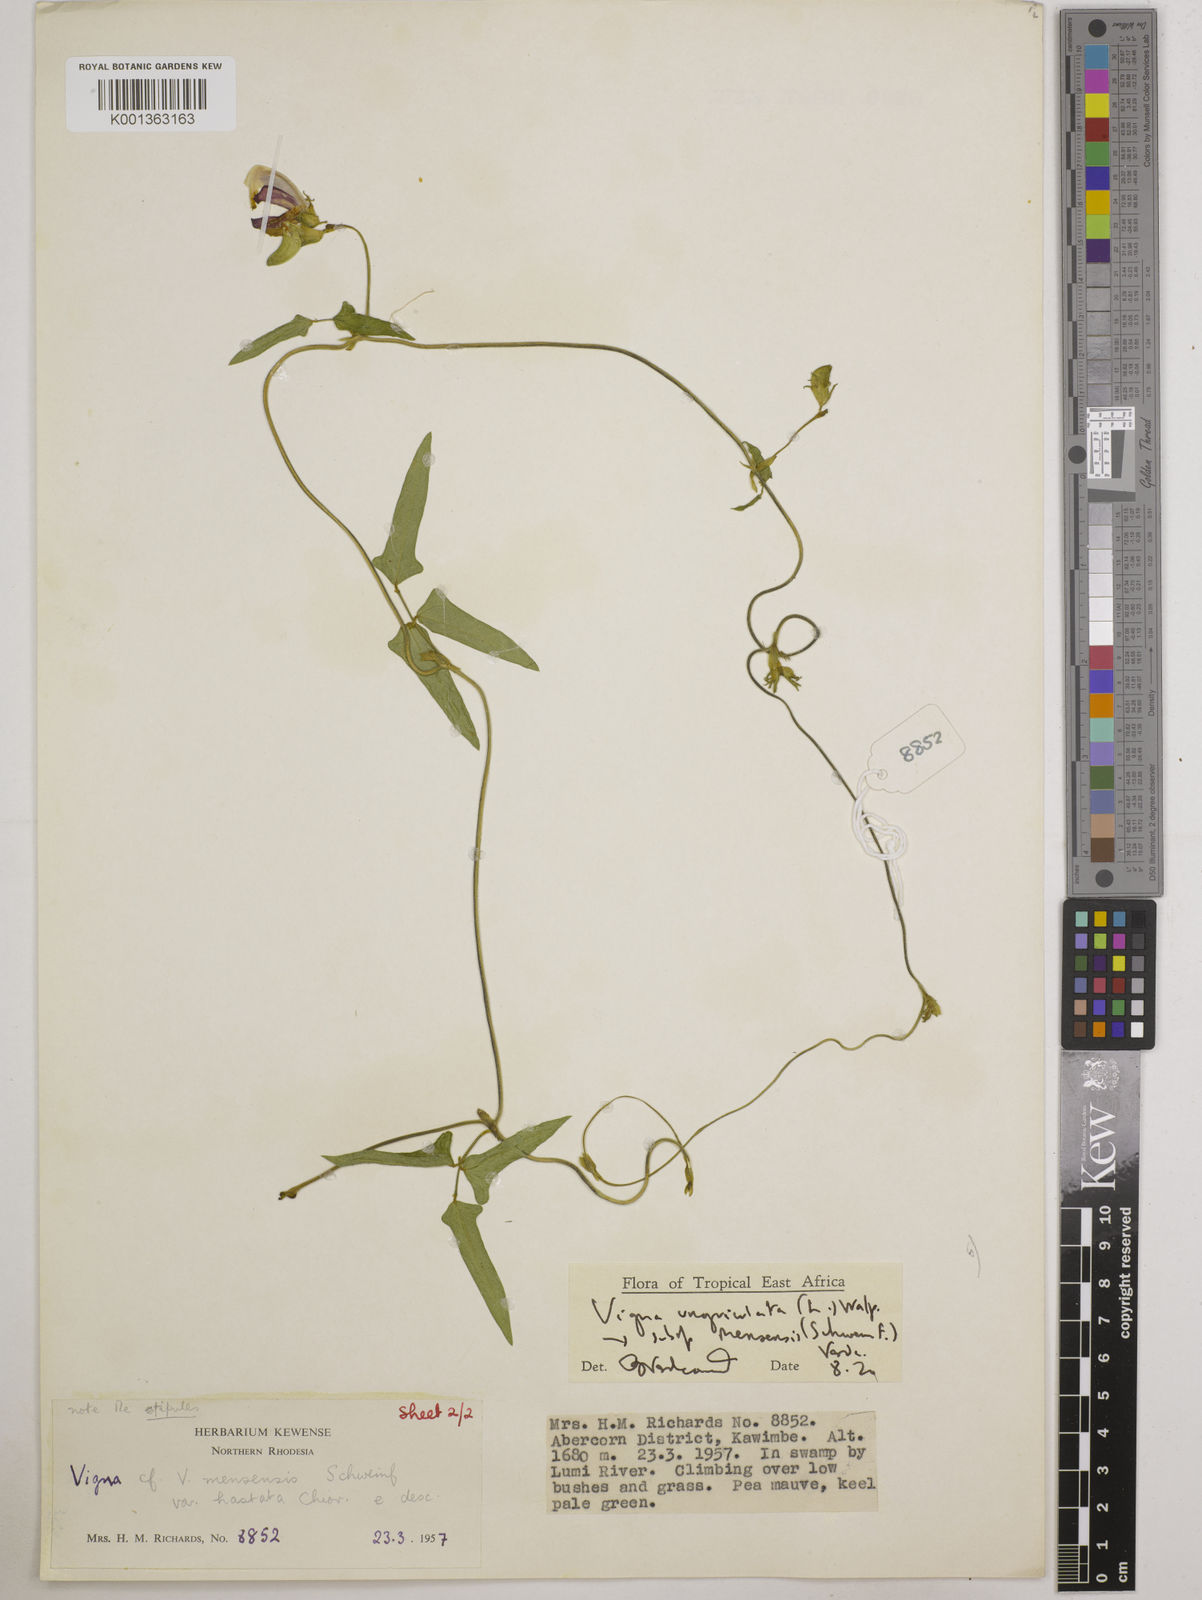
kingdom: Plantae
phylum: Tracheophyta
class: Magnoliopsida
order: Fabales
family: Fabaceae
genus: Vigna
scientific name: Vigna unguiculata
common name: Cowpea
